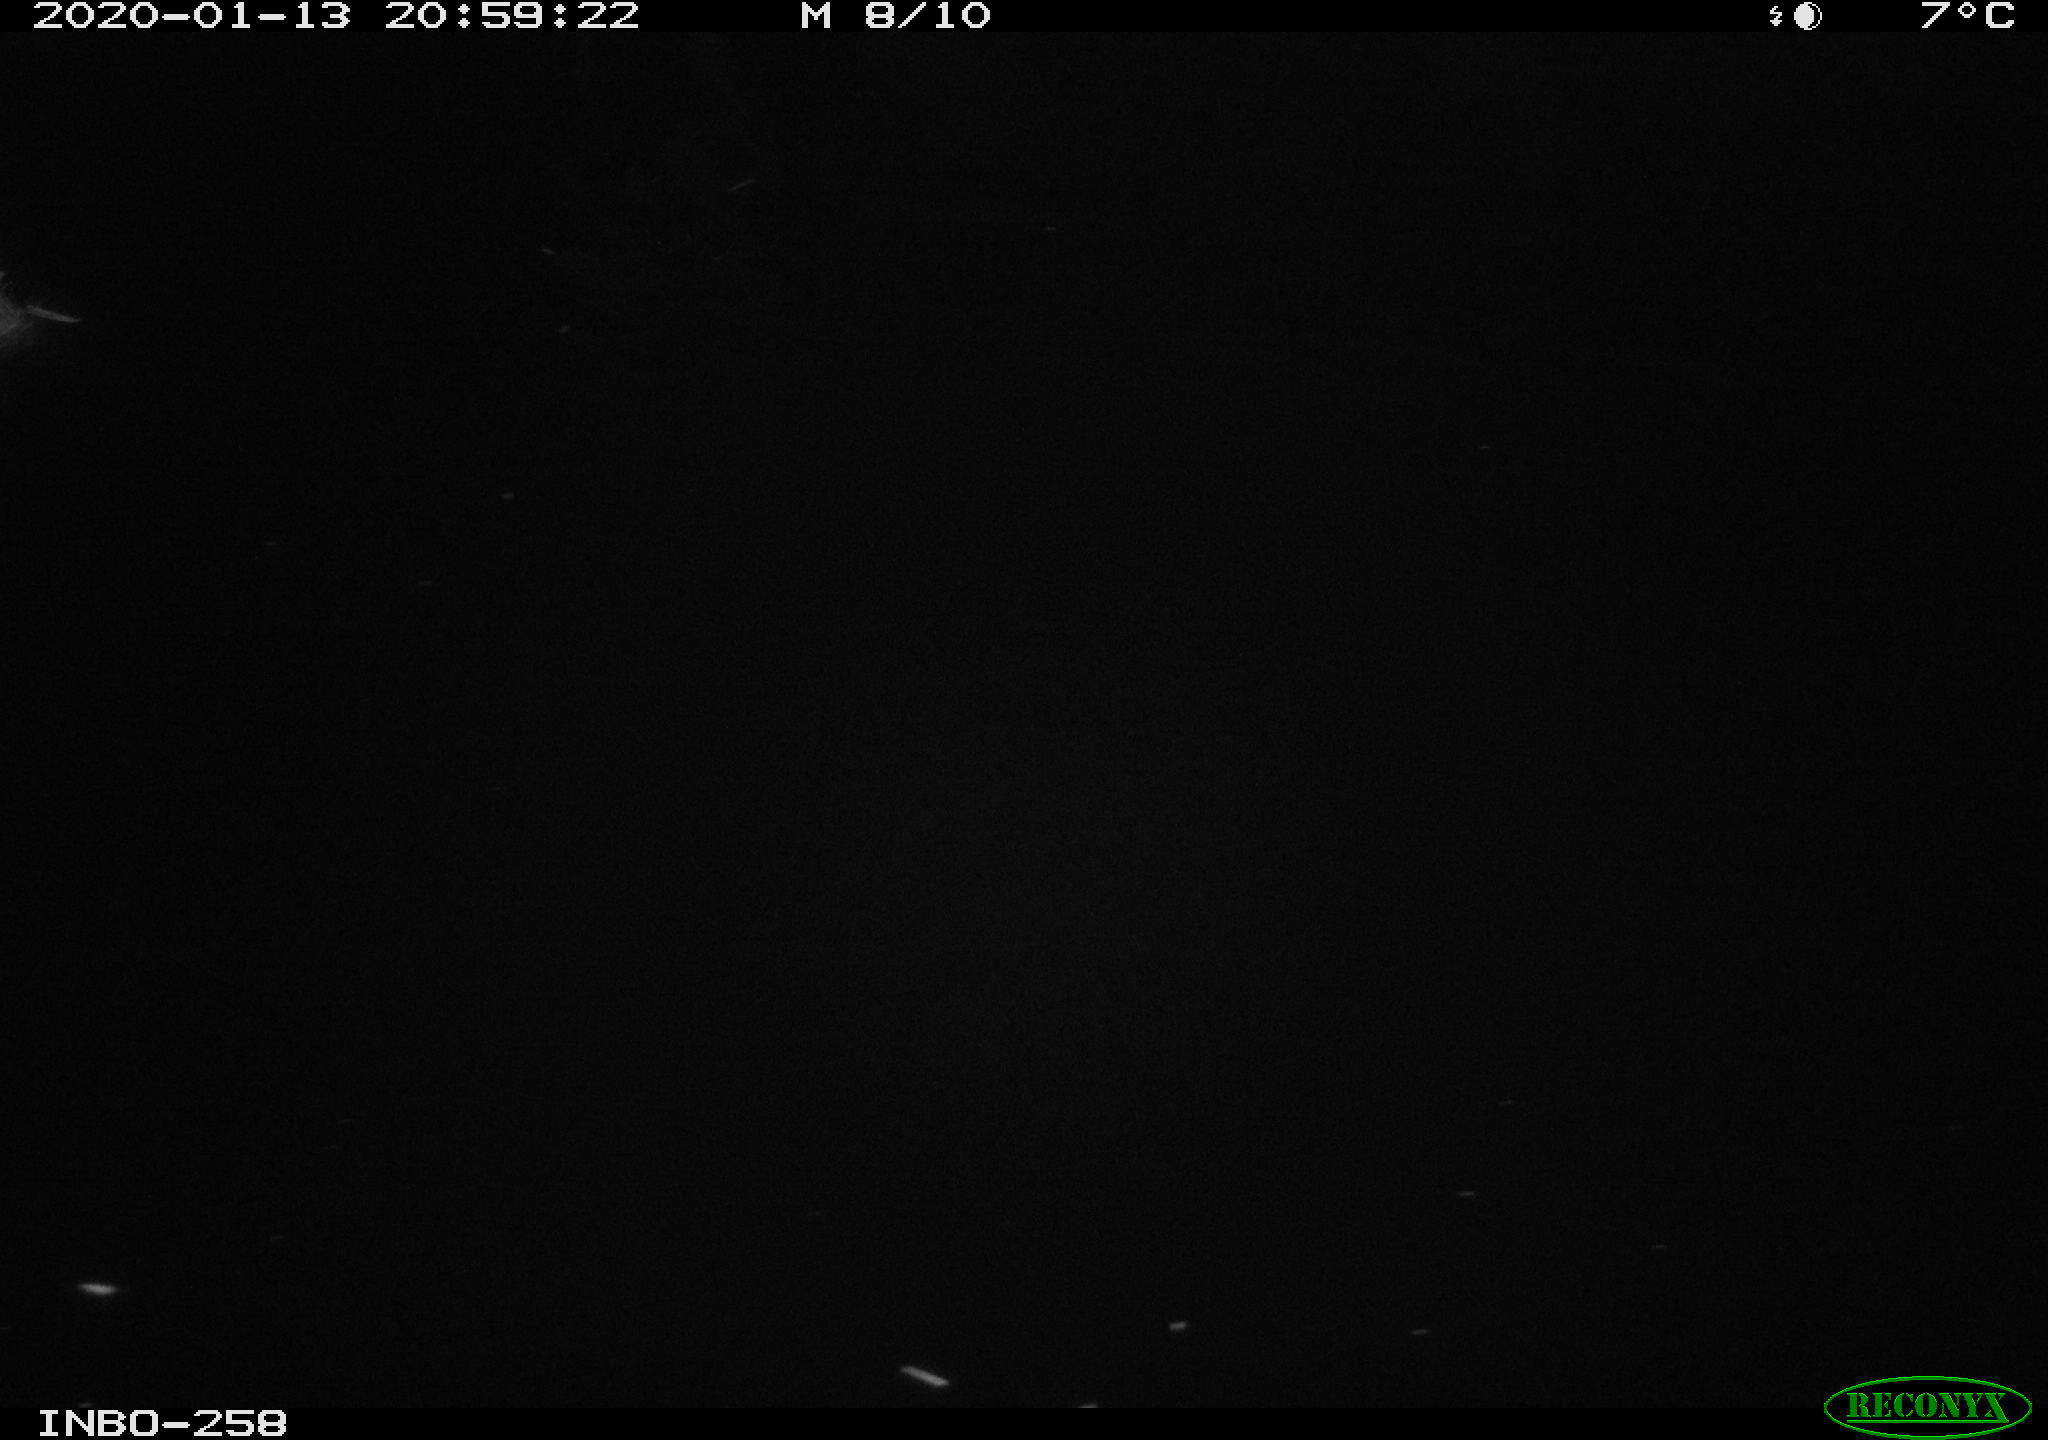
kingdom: Animalia
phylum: Chordata
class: Aves
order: Anseriformes
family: Anatidae
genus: Anas
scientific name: Anas platyrhynchos
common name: Mallard
